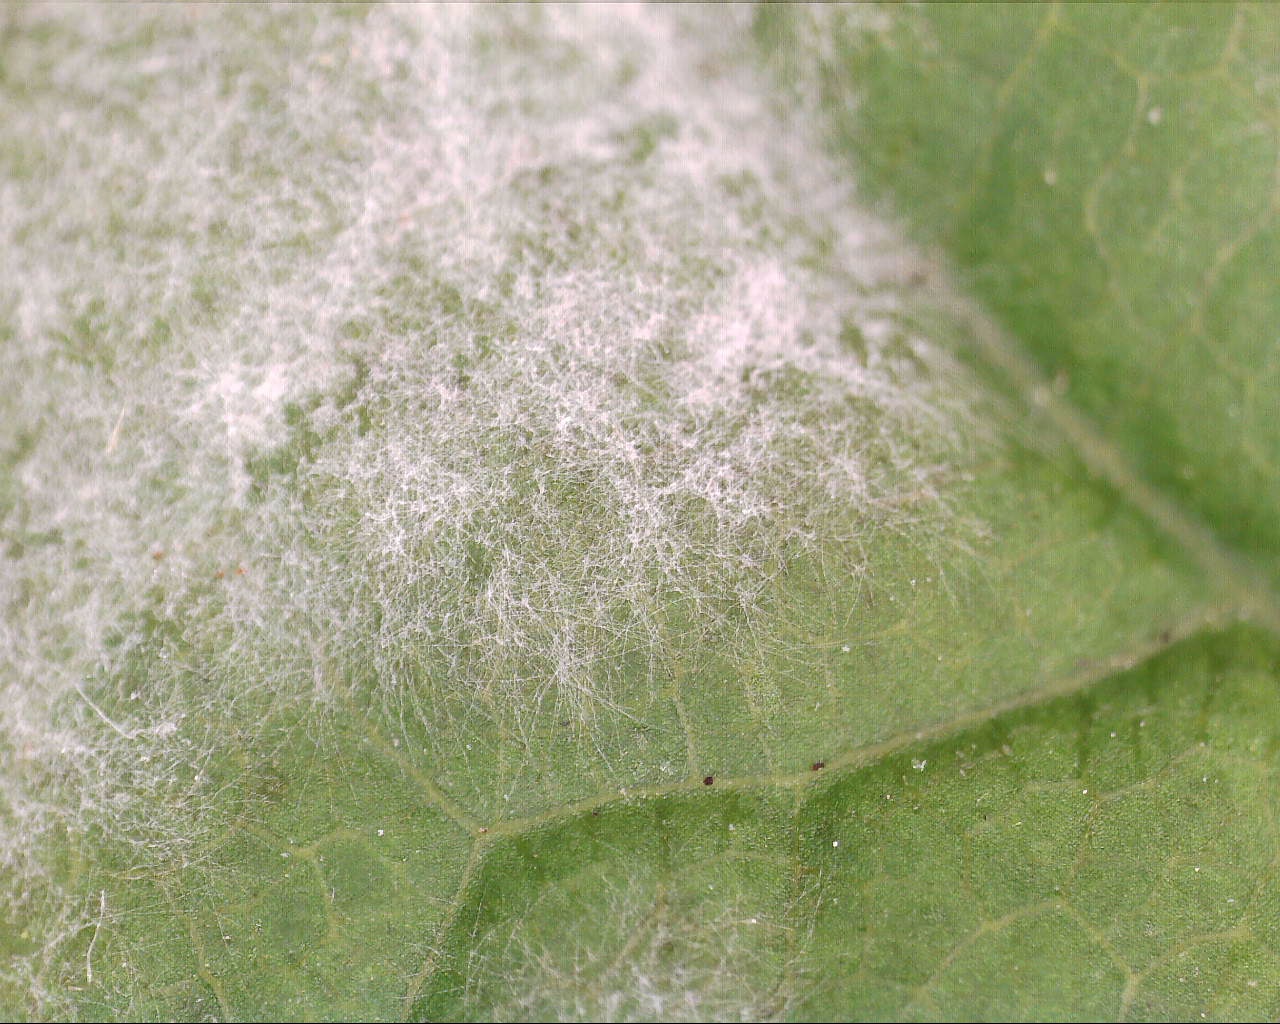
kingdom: Fungi
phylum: Ascomycota
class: Leotiomycetes
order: Helotiales
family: Erysiphaceae
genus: Sawadaea
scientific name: Sawadaea bicornis
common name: Maple mildew
